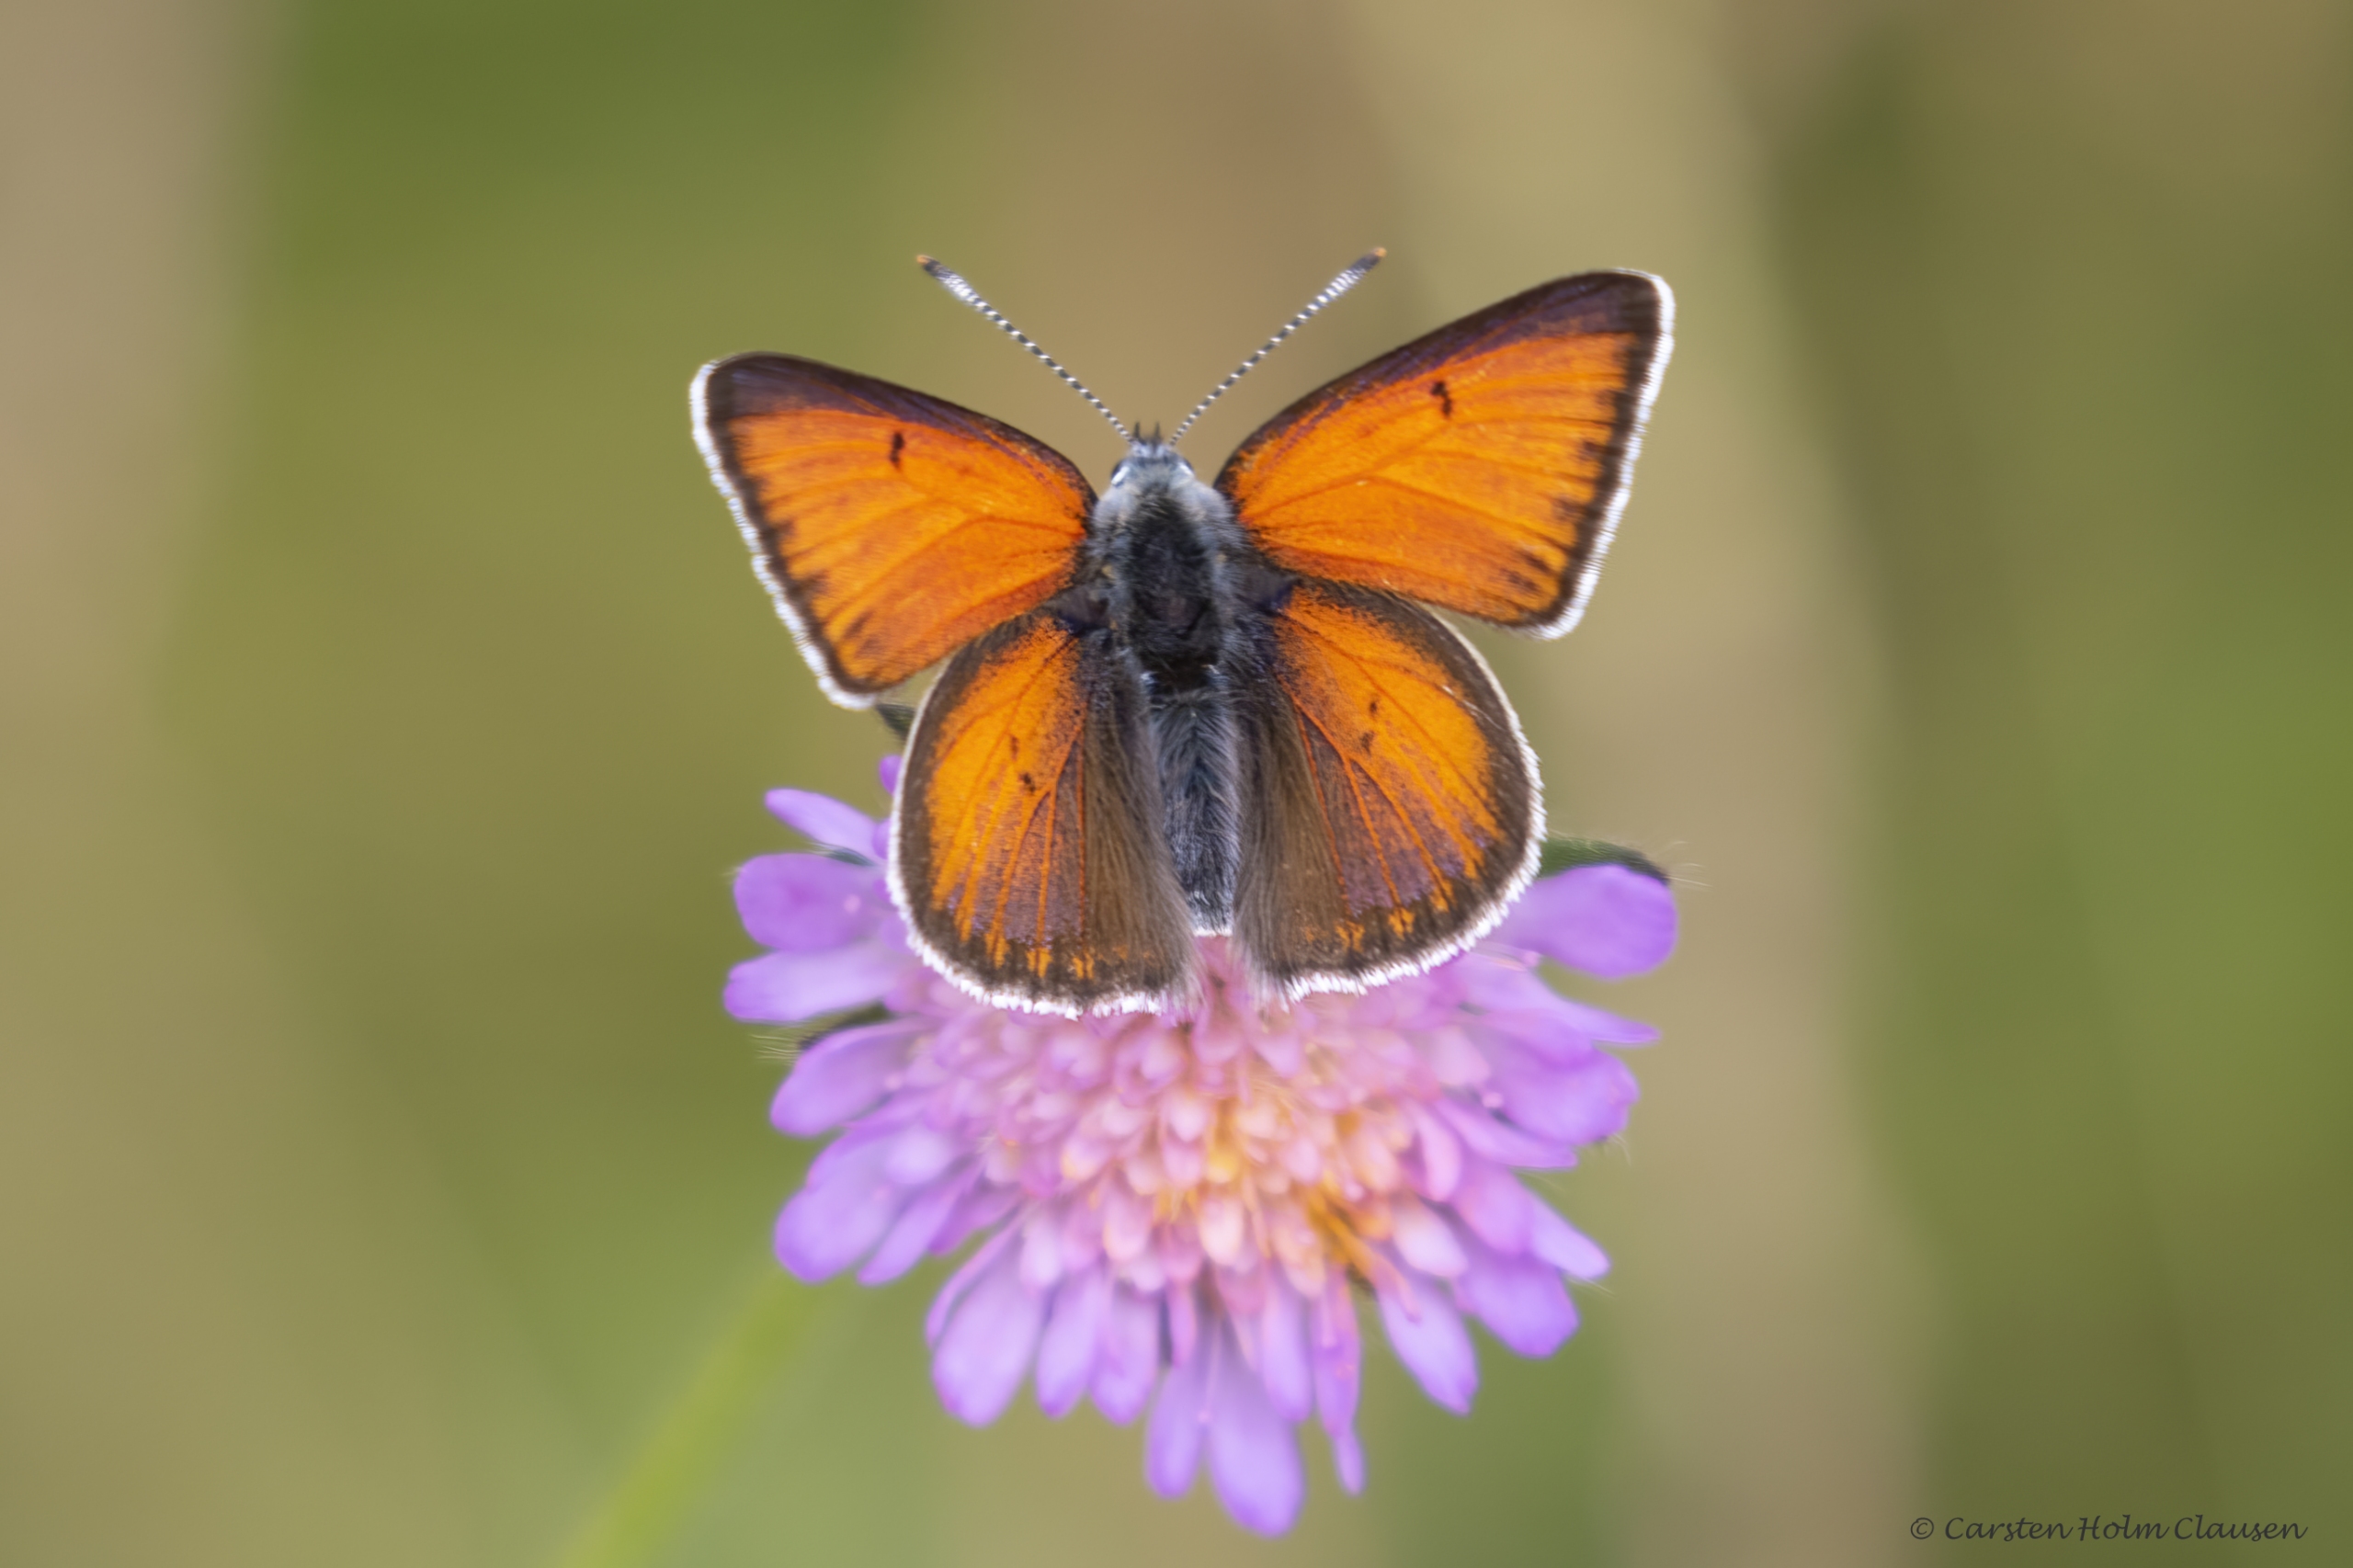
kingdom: Animalia
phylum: Arthropoda
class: Insecta
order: Lepidoptera
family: Lycaenidae
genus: Palaeochrysophanus
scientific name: Palaeochrysophanus hippothoe
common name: Violetrandet ildfugl
